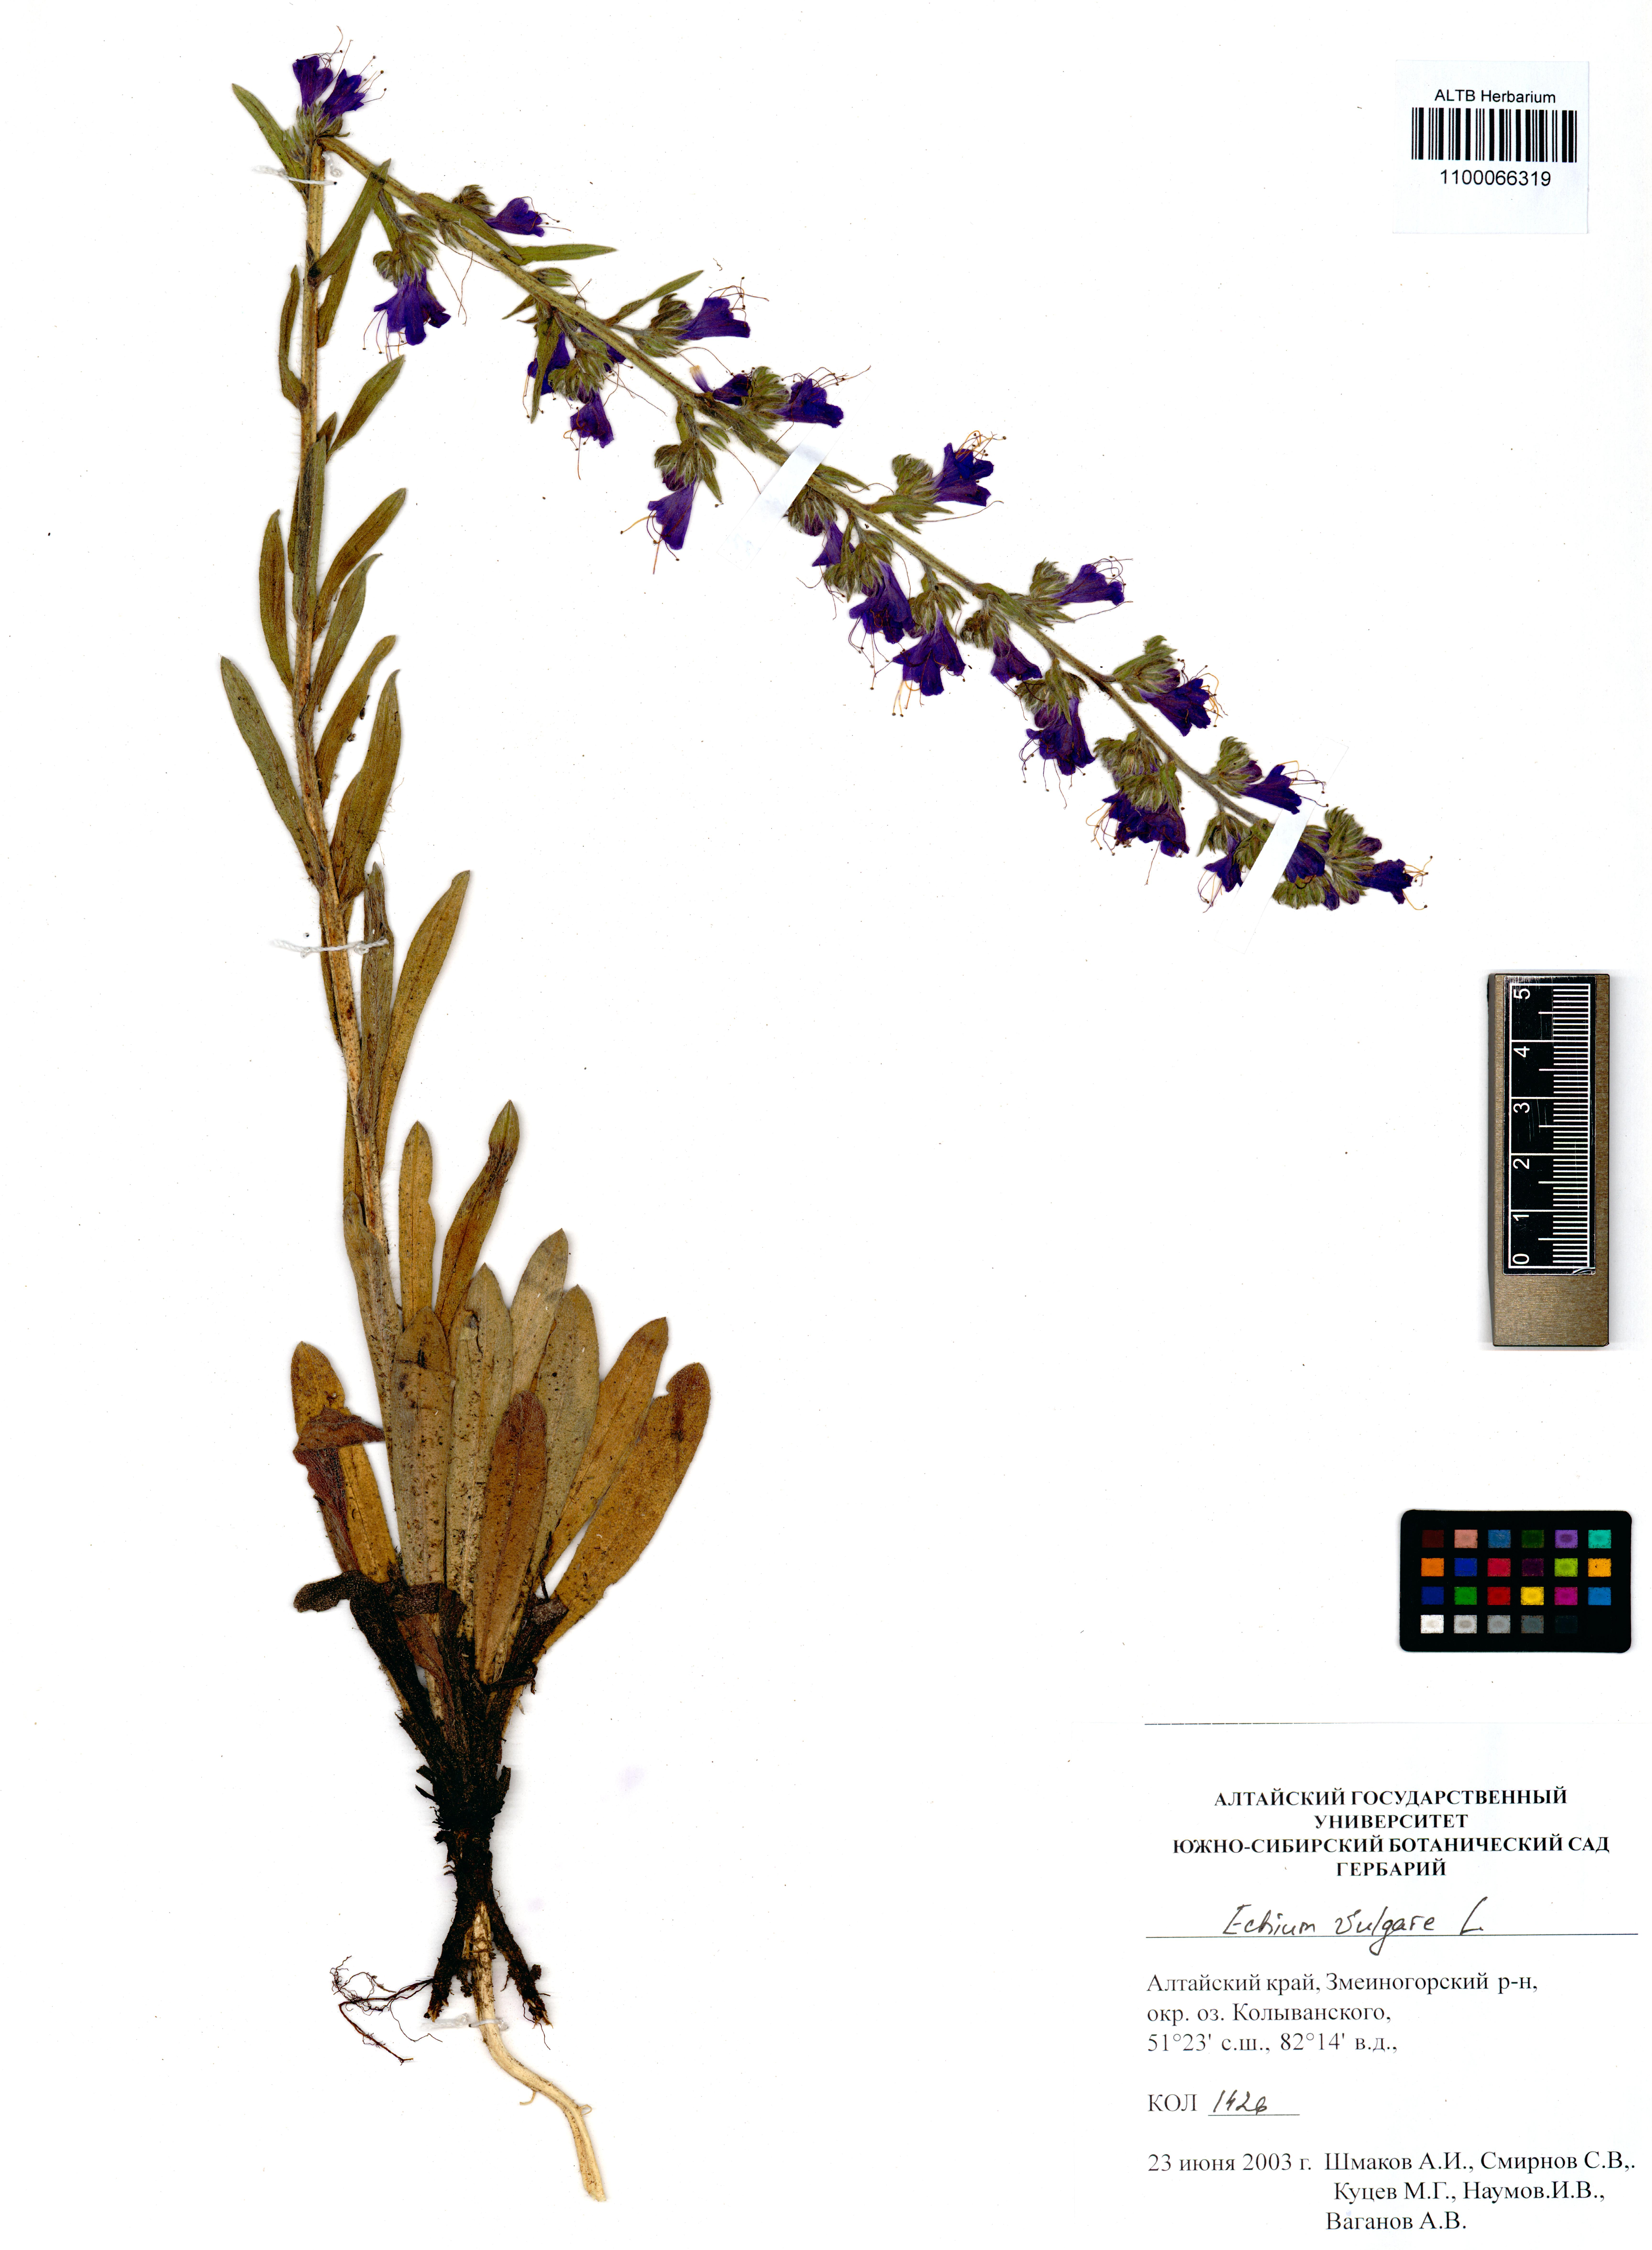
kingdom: Plantae
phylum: Tracheophyta
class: Magnoliopsida
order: Boraginales
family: Boraginaceae
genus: Echium
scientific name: Echium vulgare
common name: Common viper's bugloss
